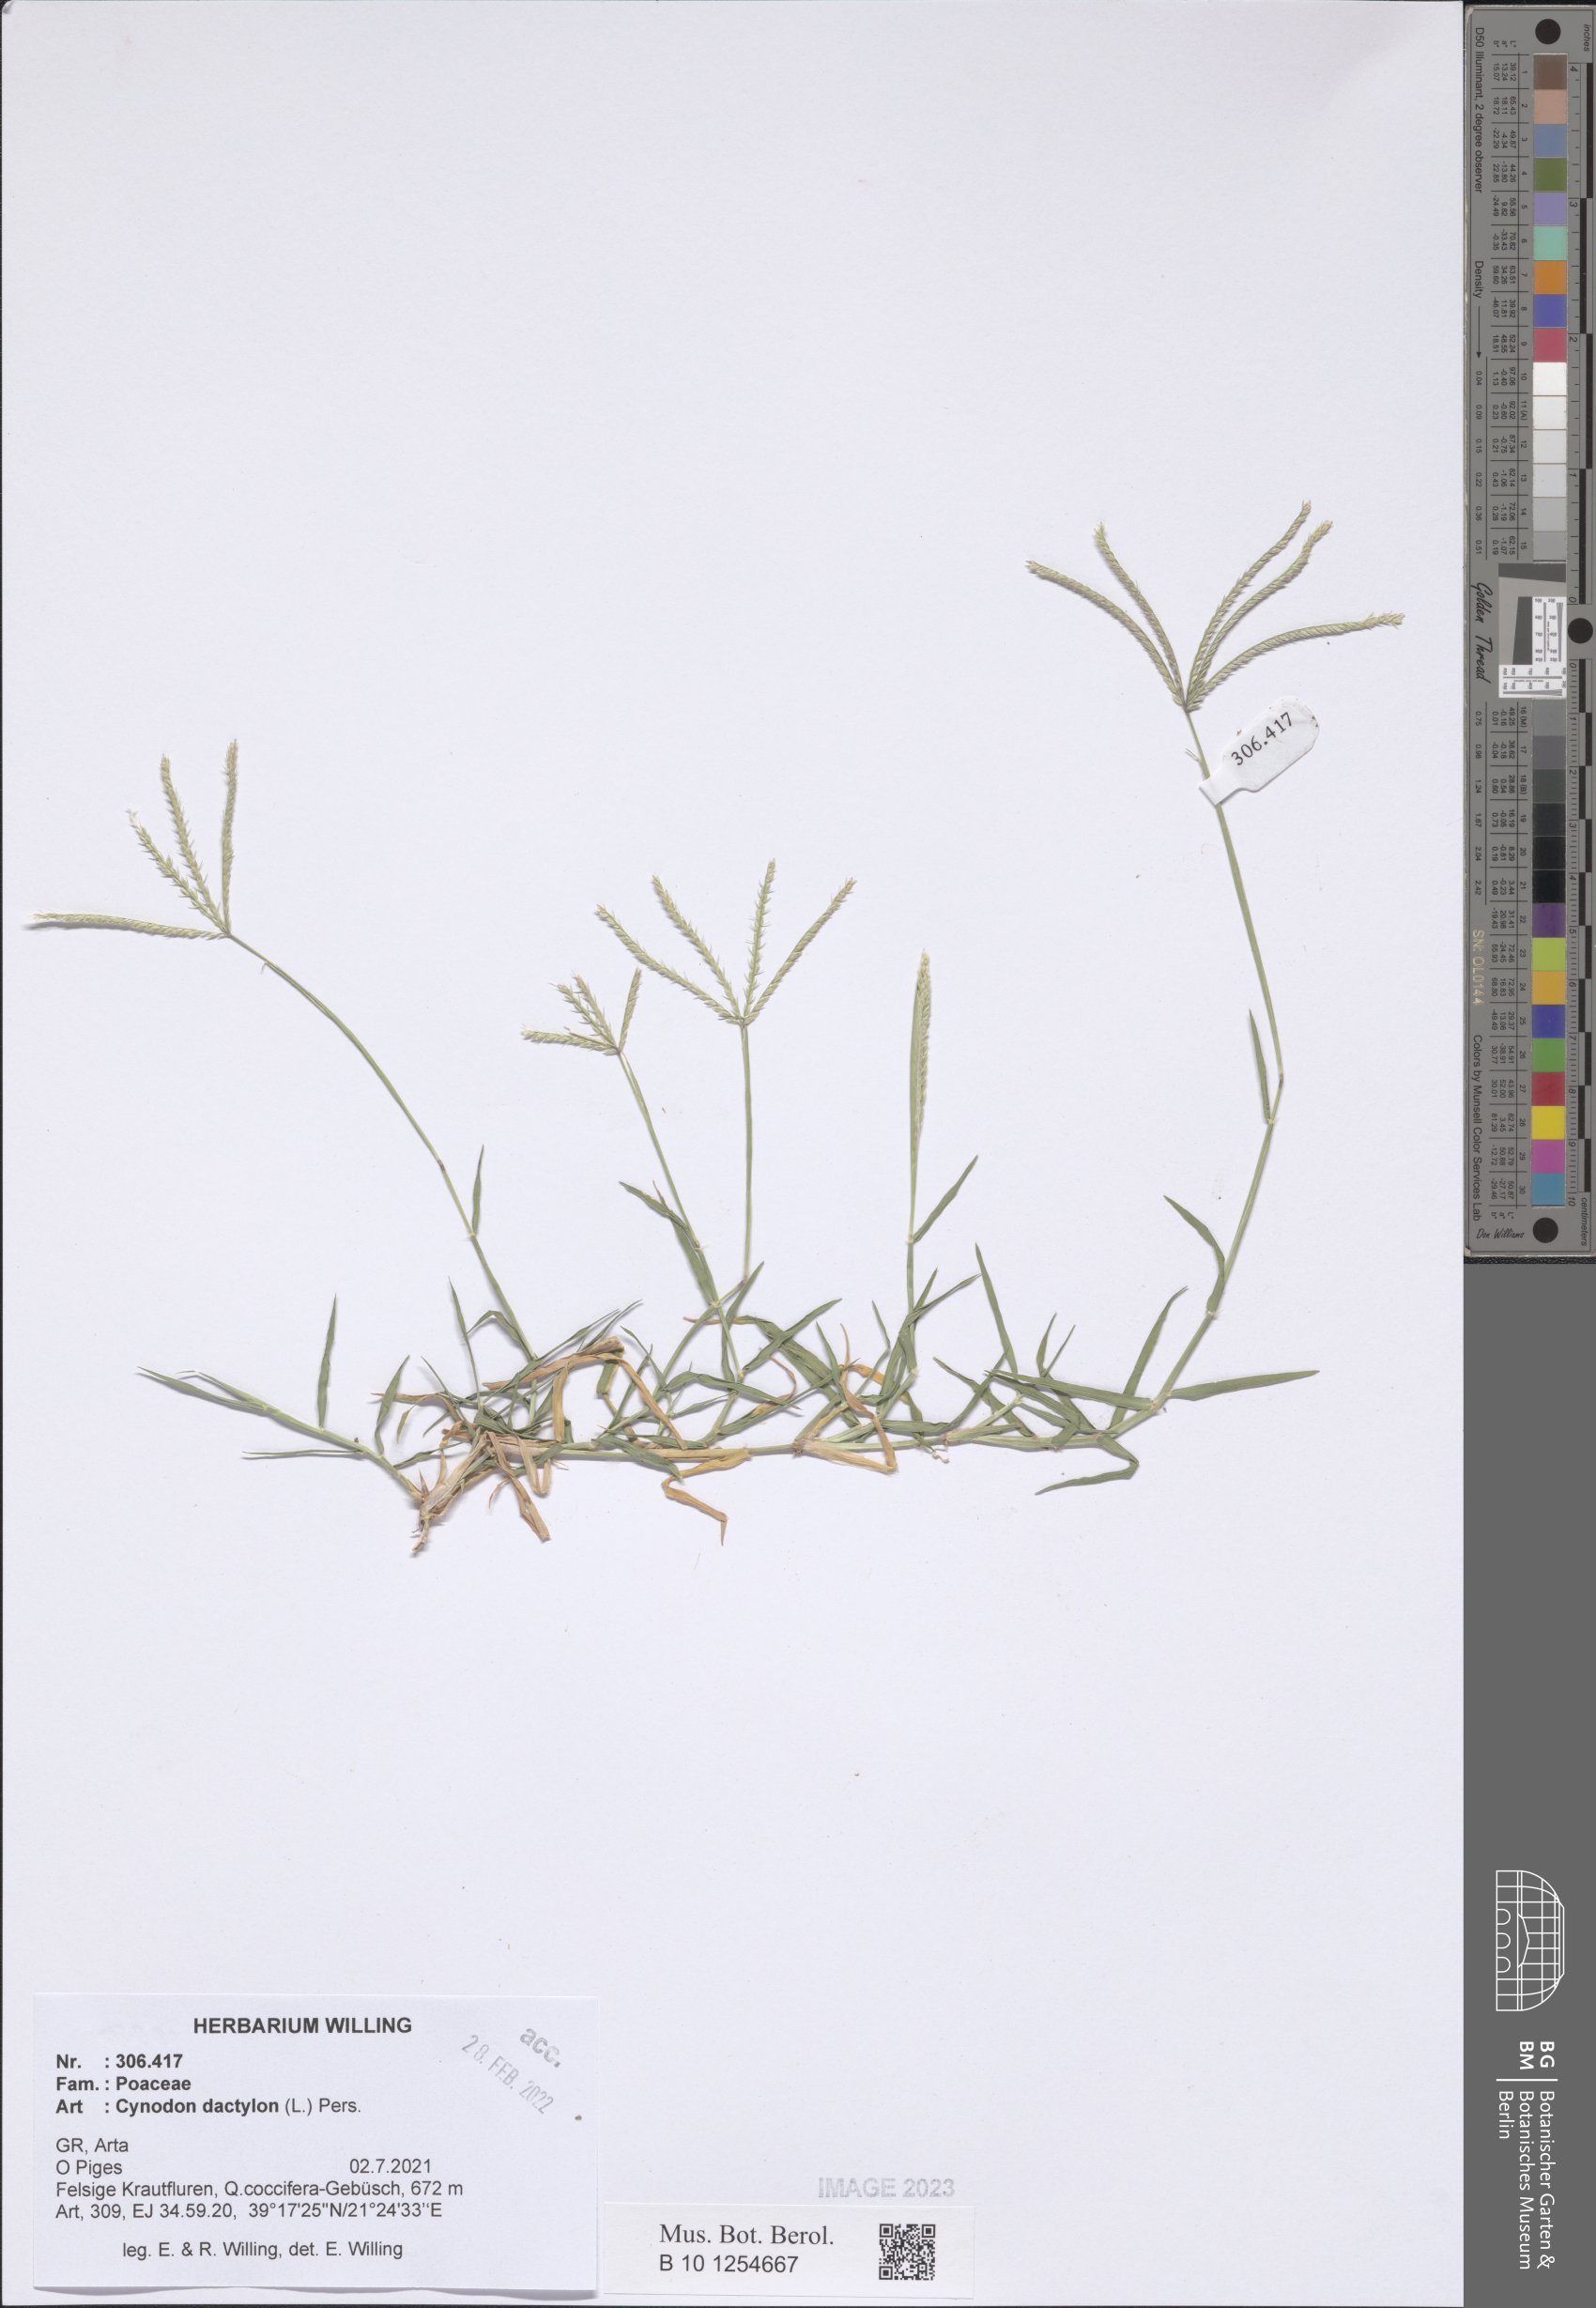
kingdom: Plantae
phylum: Tracheophyta
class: Liliopsida
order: Poales
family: Poaceae
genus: Cynodon
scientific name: Cynodon dactylon
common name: Bermuda grass
